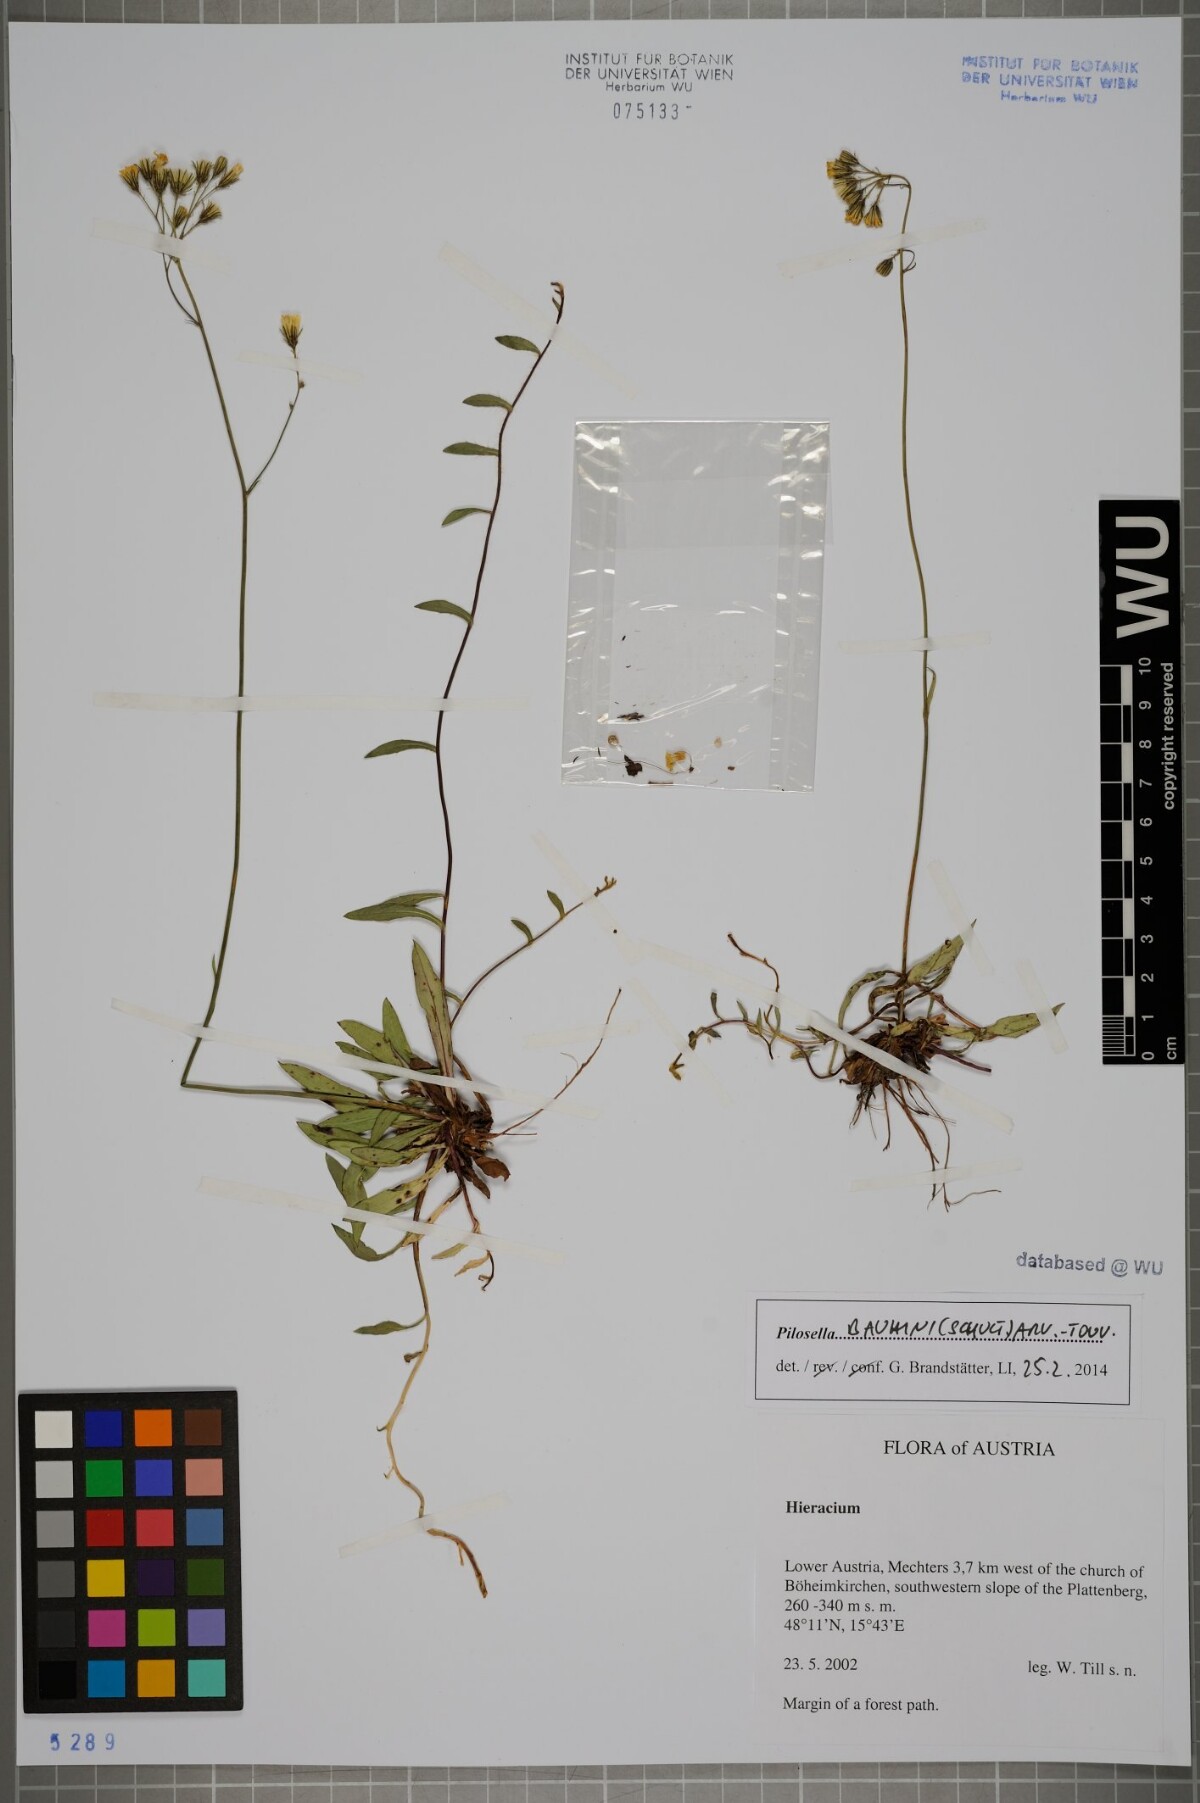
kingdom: Plantae
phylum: Tracheophyta
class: Magnoliopsida
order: Asterales
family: Asteraceae
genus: Pilosella
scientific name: Pilosella bauhini
